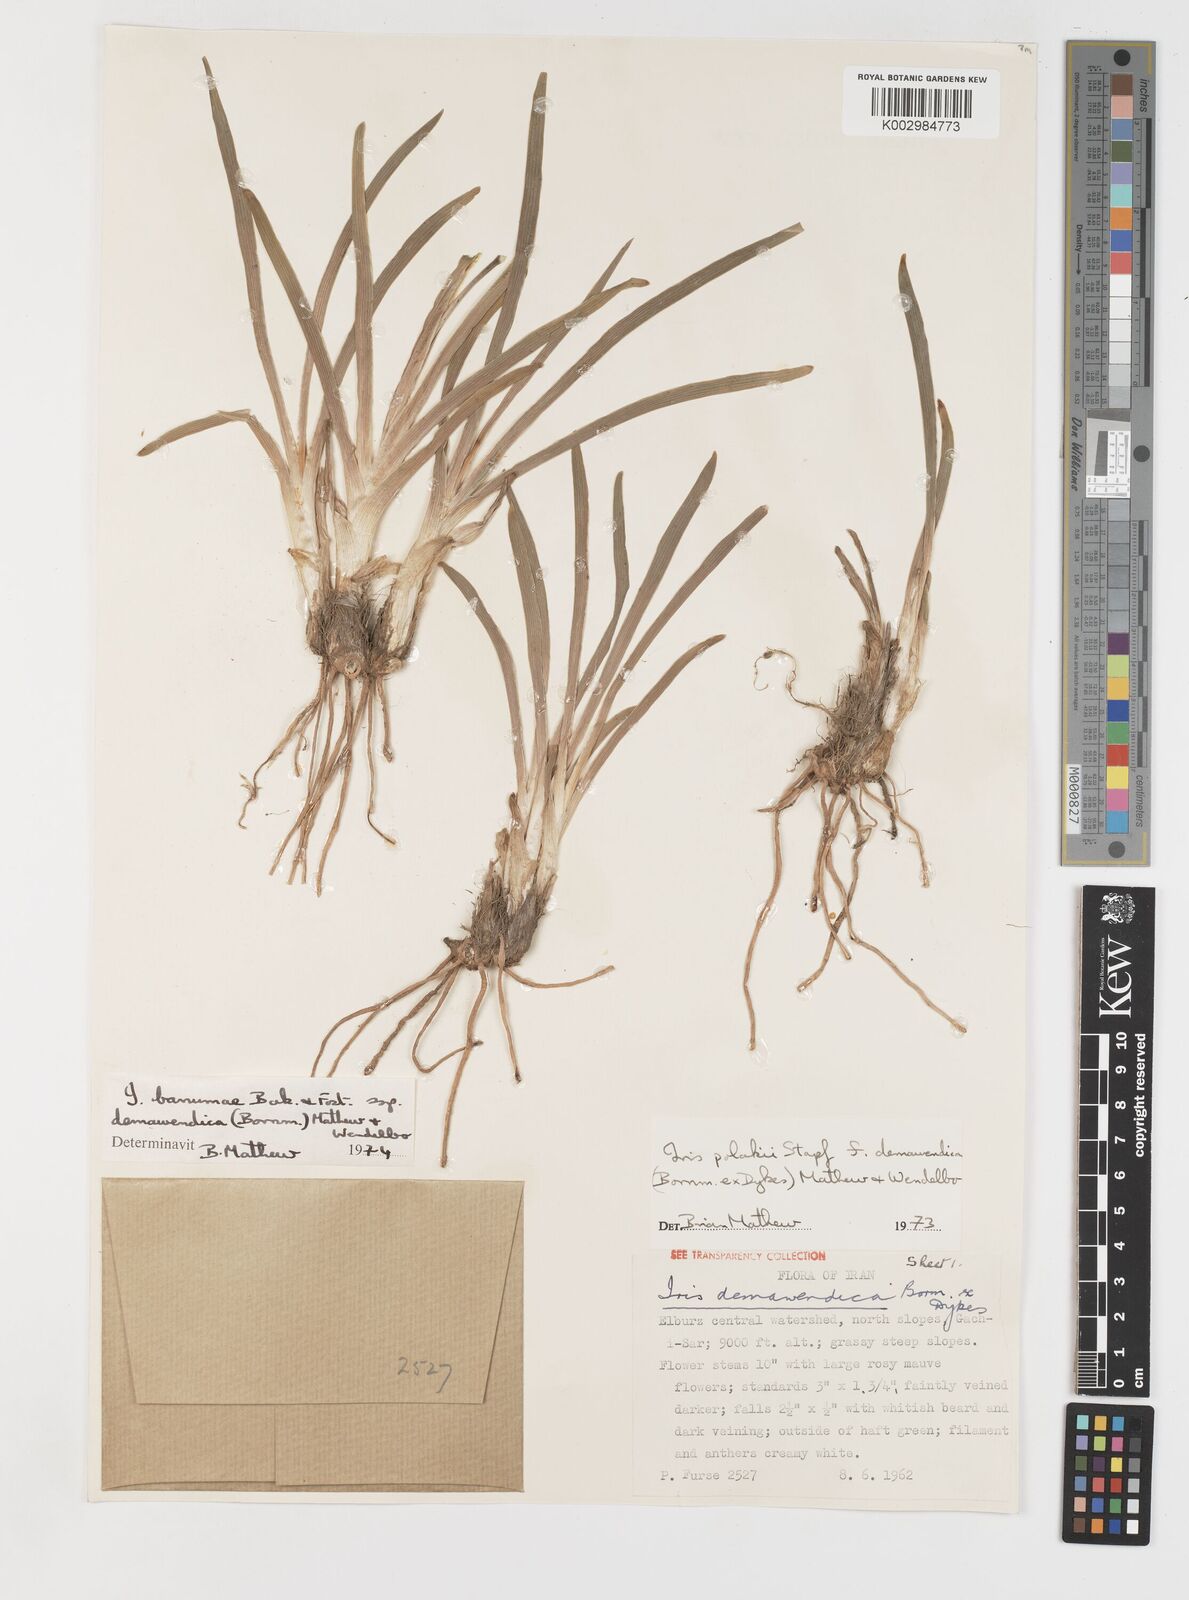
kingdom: Plantae
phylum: Tracheophyta
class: Liliopsida
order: Asparagales
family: Iridaceae
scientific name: Iridaceae
